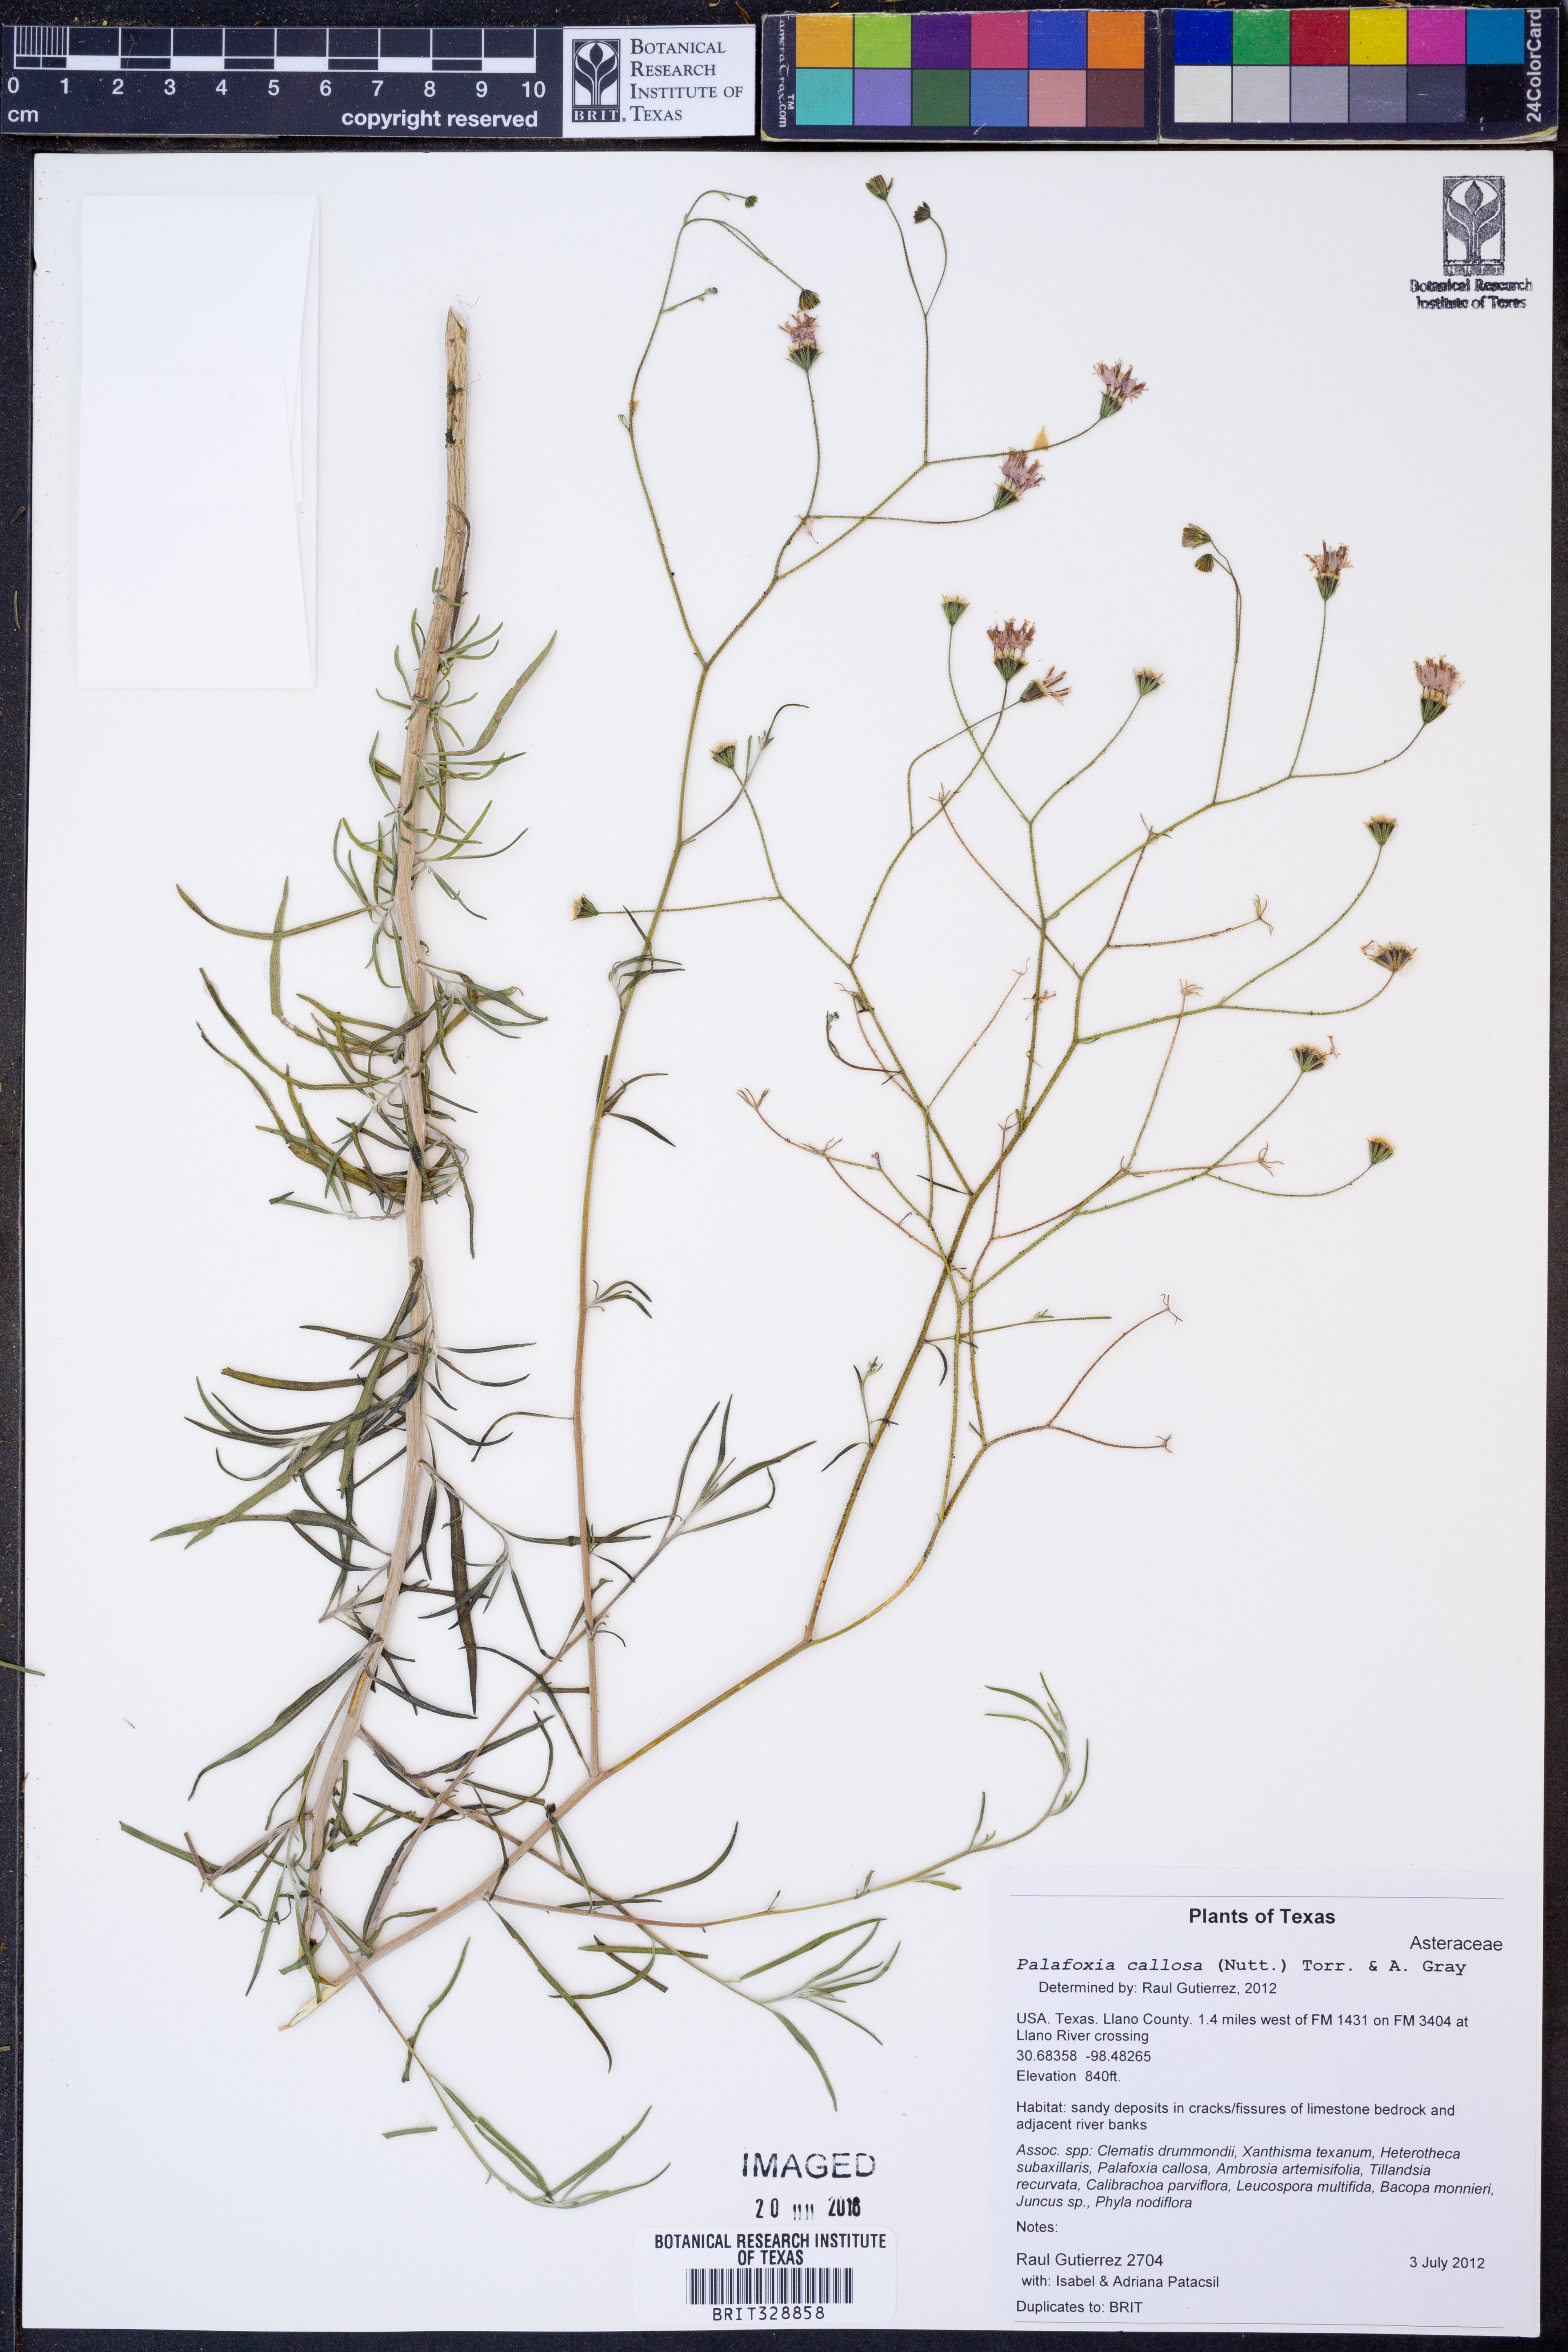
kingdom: Plantae
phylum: Tracheophyta
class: Magnoliopsida
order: Asterales
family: Asteraceae
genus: Palafoxia
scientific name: Palafoxia callosa
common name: Small palafox
